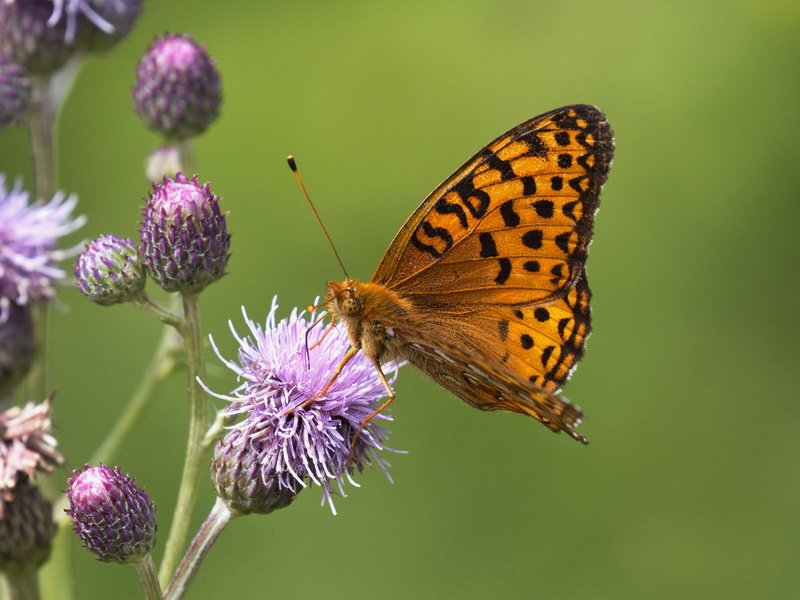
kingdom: Animalia
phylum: Arthropoda
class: Insecta
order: Lepidoptera
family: Nymphalidae
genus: Speyeria
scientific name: Speyeria aphrodite
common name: Aphrodite Fritillary
